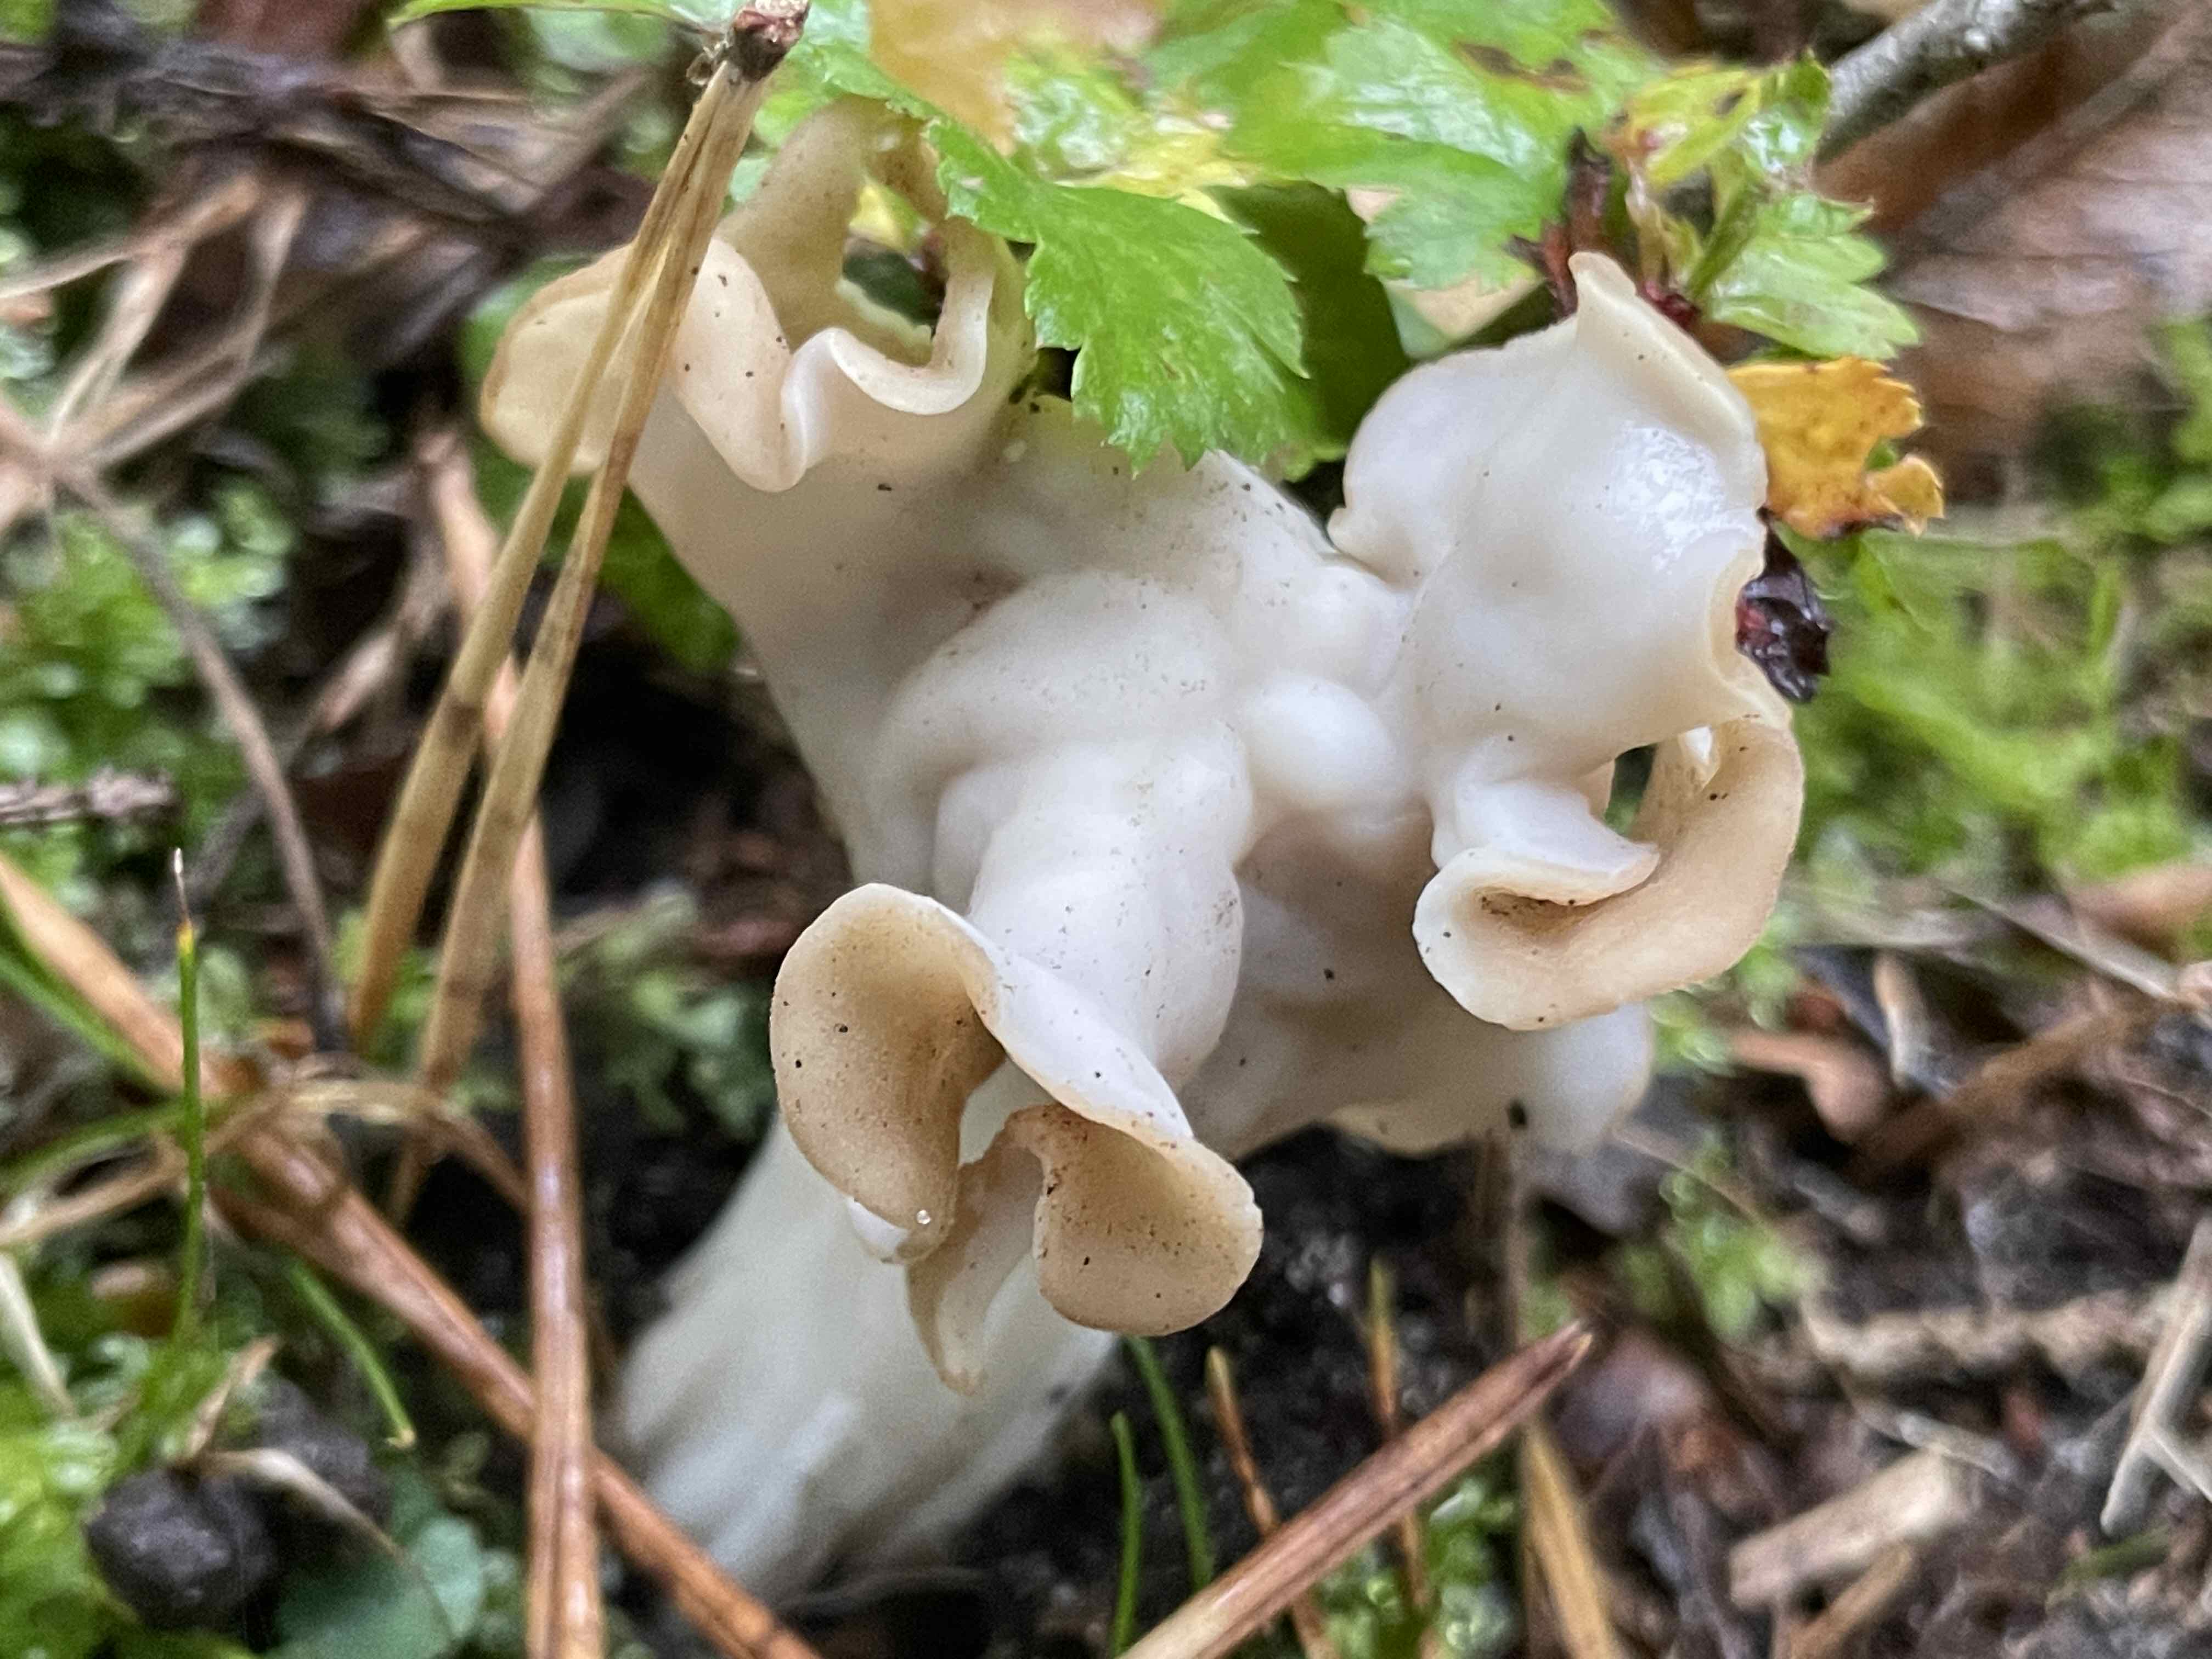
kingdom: Fungi
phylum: Ascomycota
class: Pezizomycetes
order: Pezizales
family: Helvellaceae
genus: Helvella
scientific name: Helvella crispa
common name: kruset foldhat
